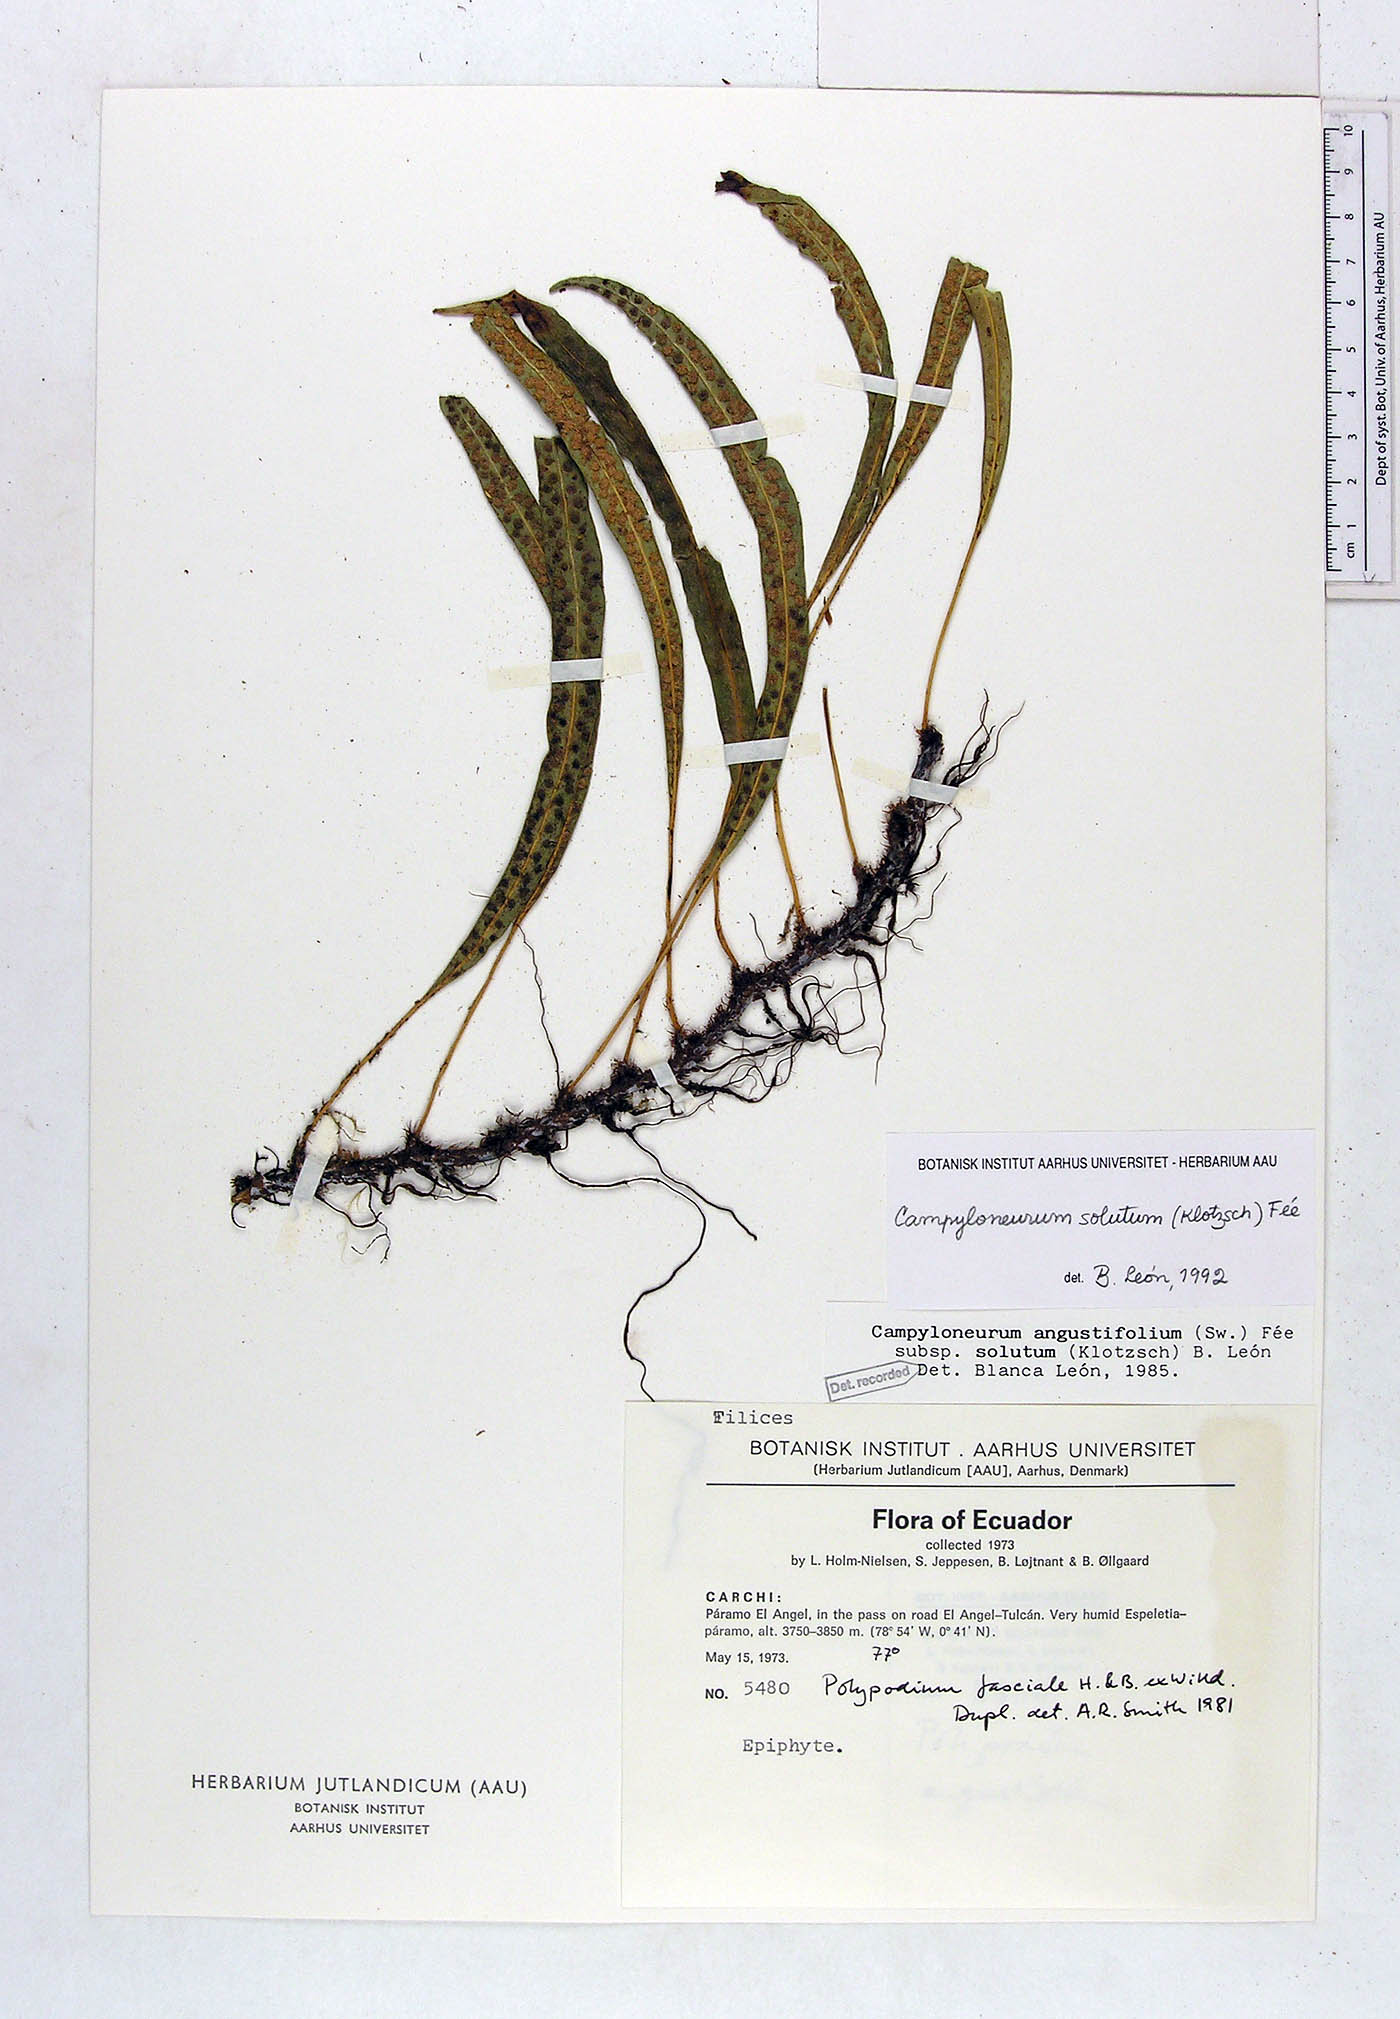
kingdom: Plantae
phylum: Tracheophyta
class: Polypodiopsida
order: Polypodiales
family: Polypodiaceae
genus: Campyloneurum
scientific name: Campyloneurum solutum
